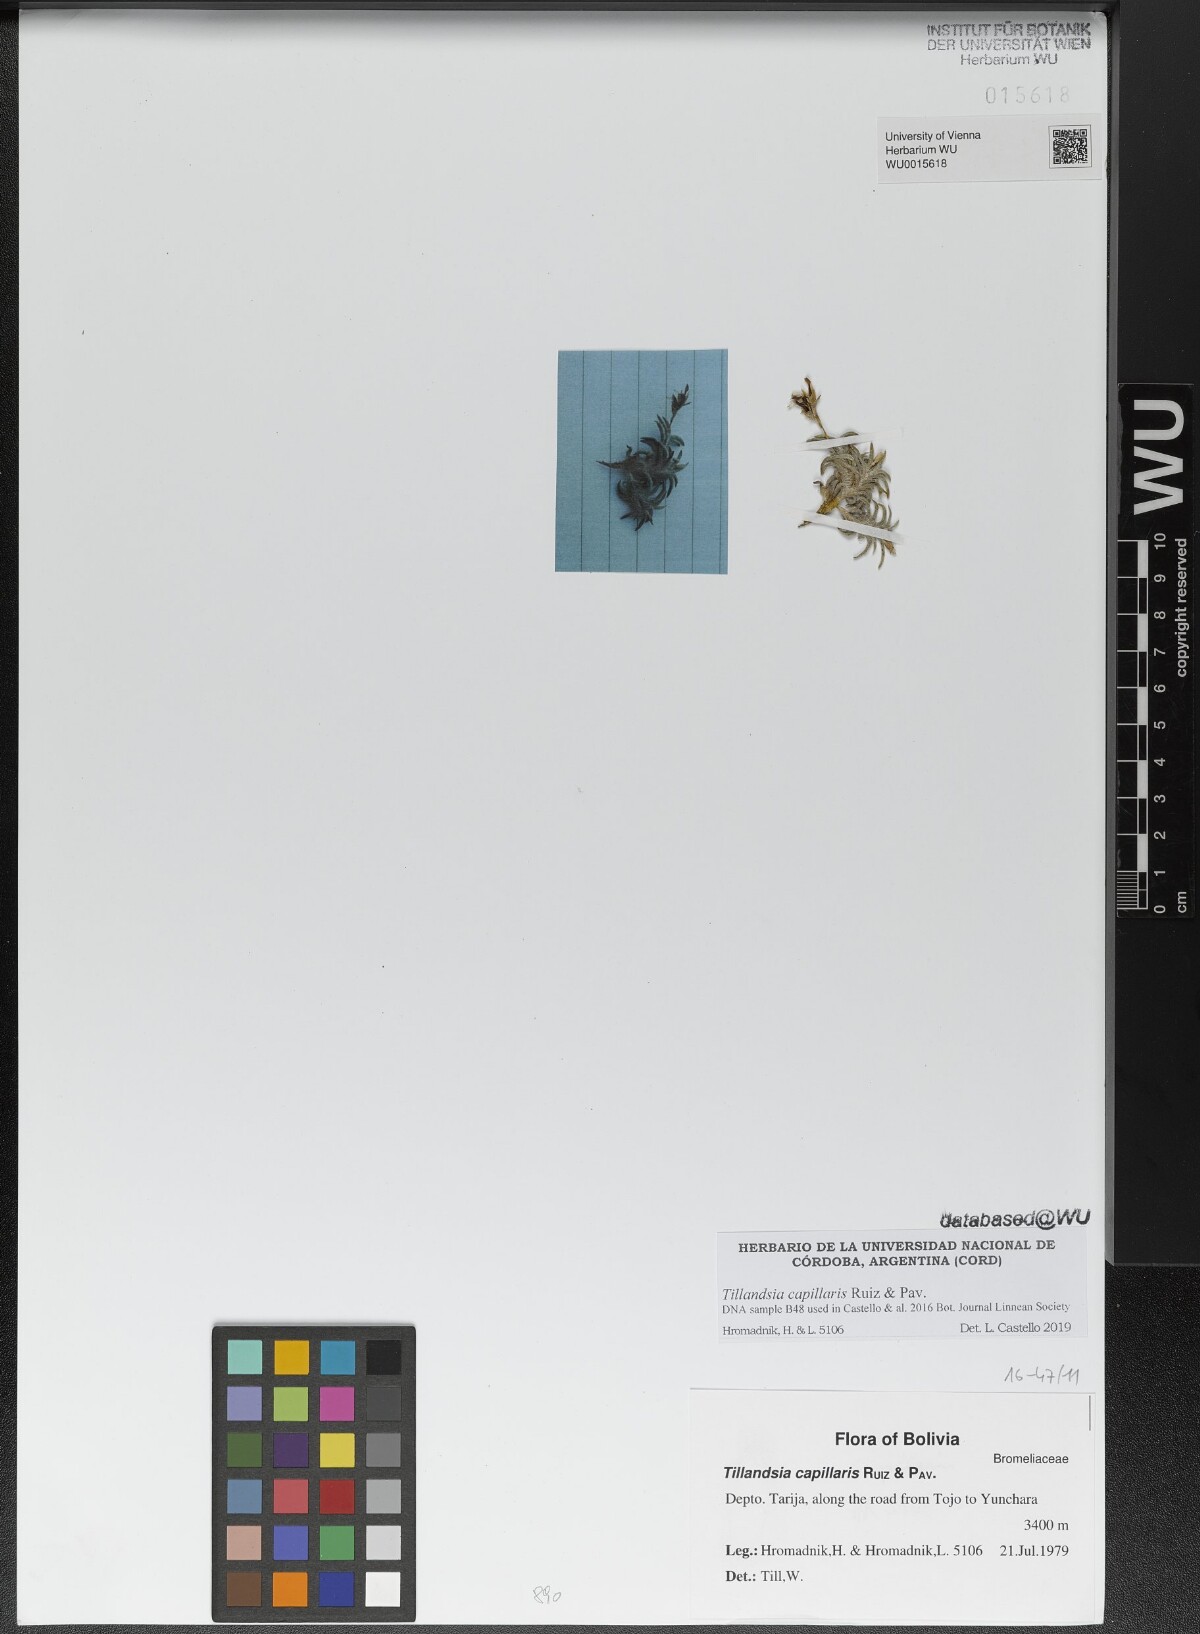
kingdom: Plantae
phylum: Tracheophyta
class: Liliopsida
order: Poales
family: Bromeliaceae
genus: Tillandsia
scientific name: Tillandsia capillaris
